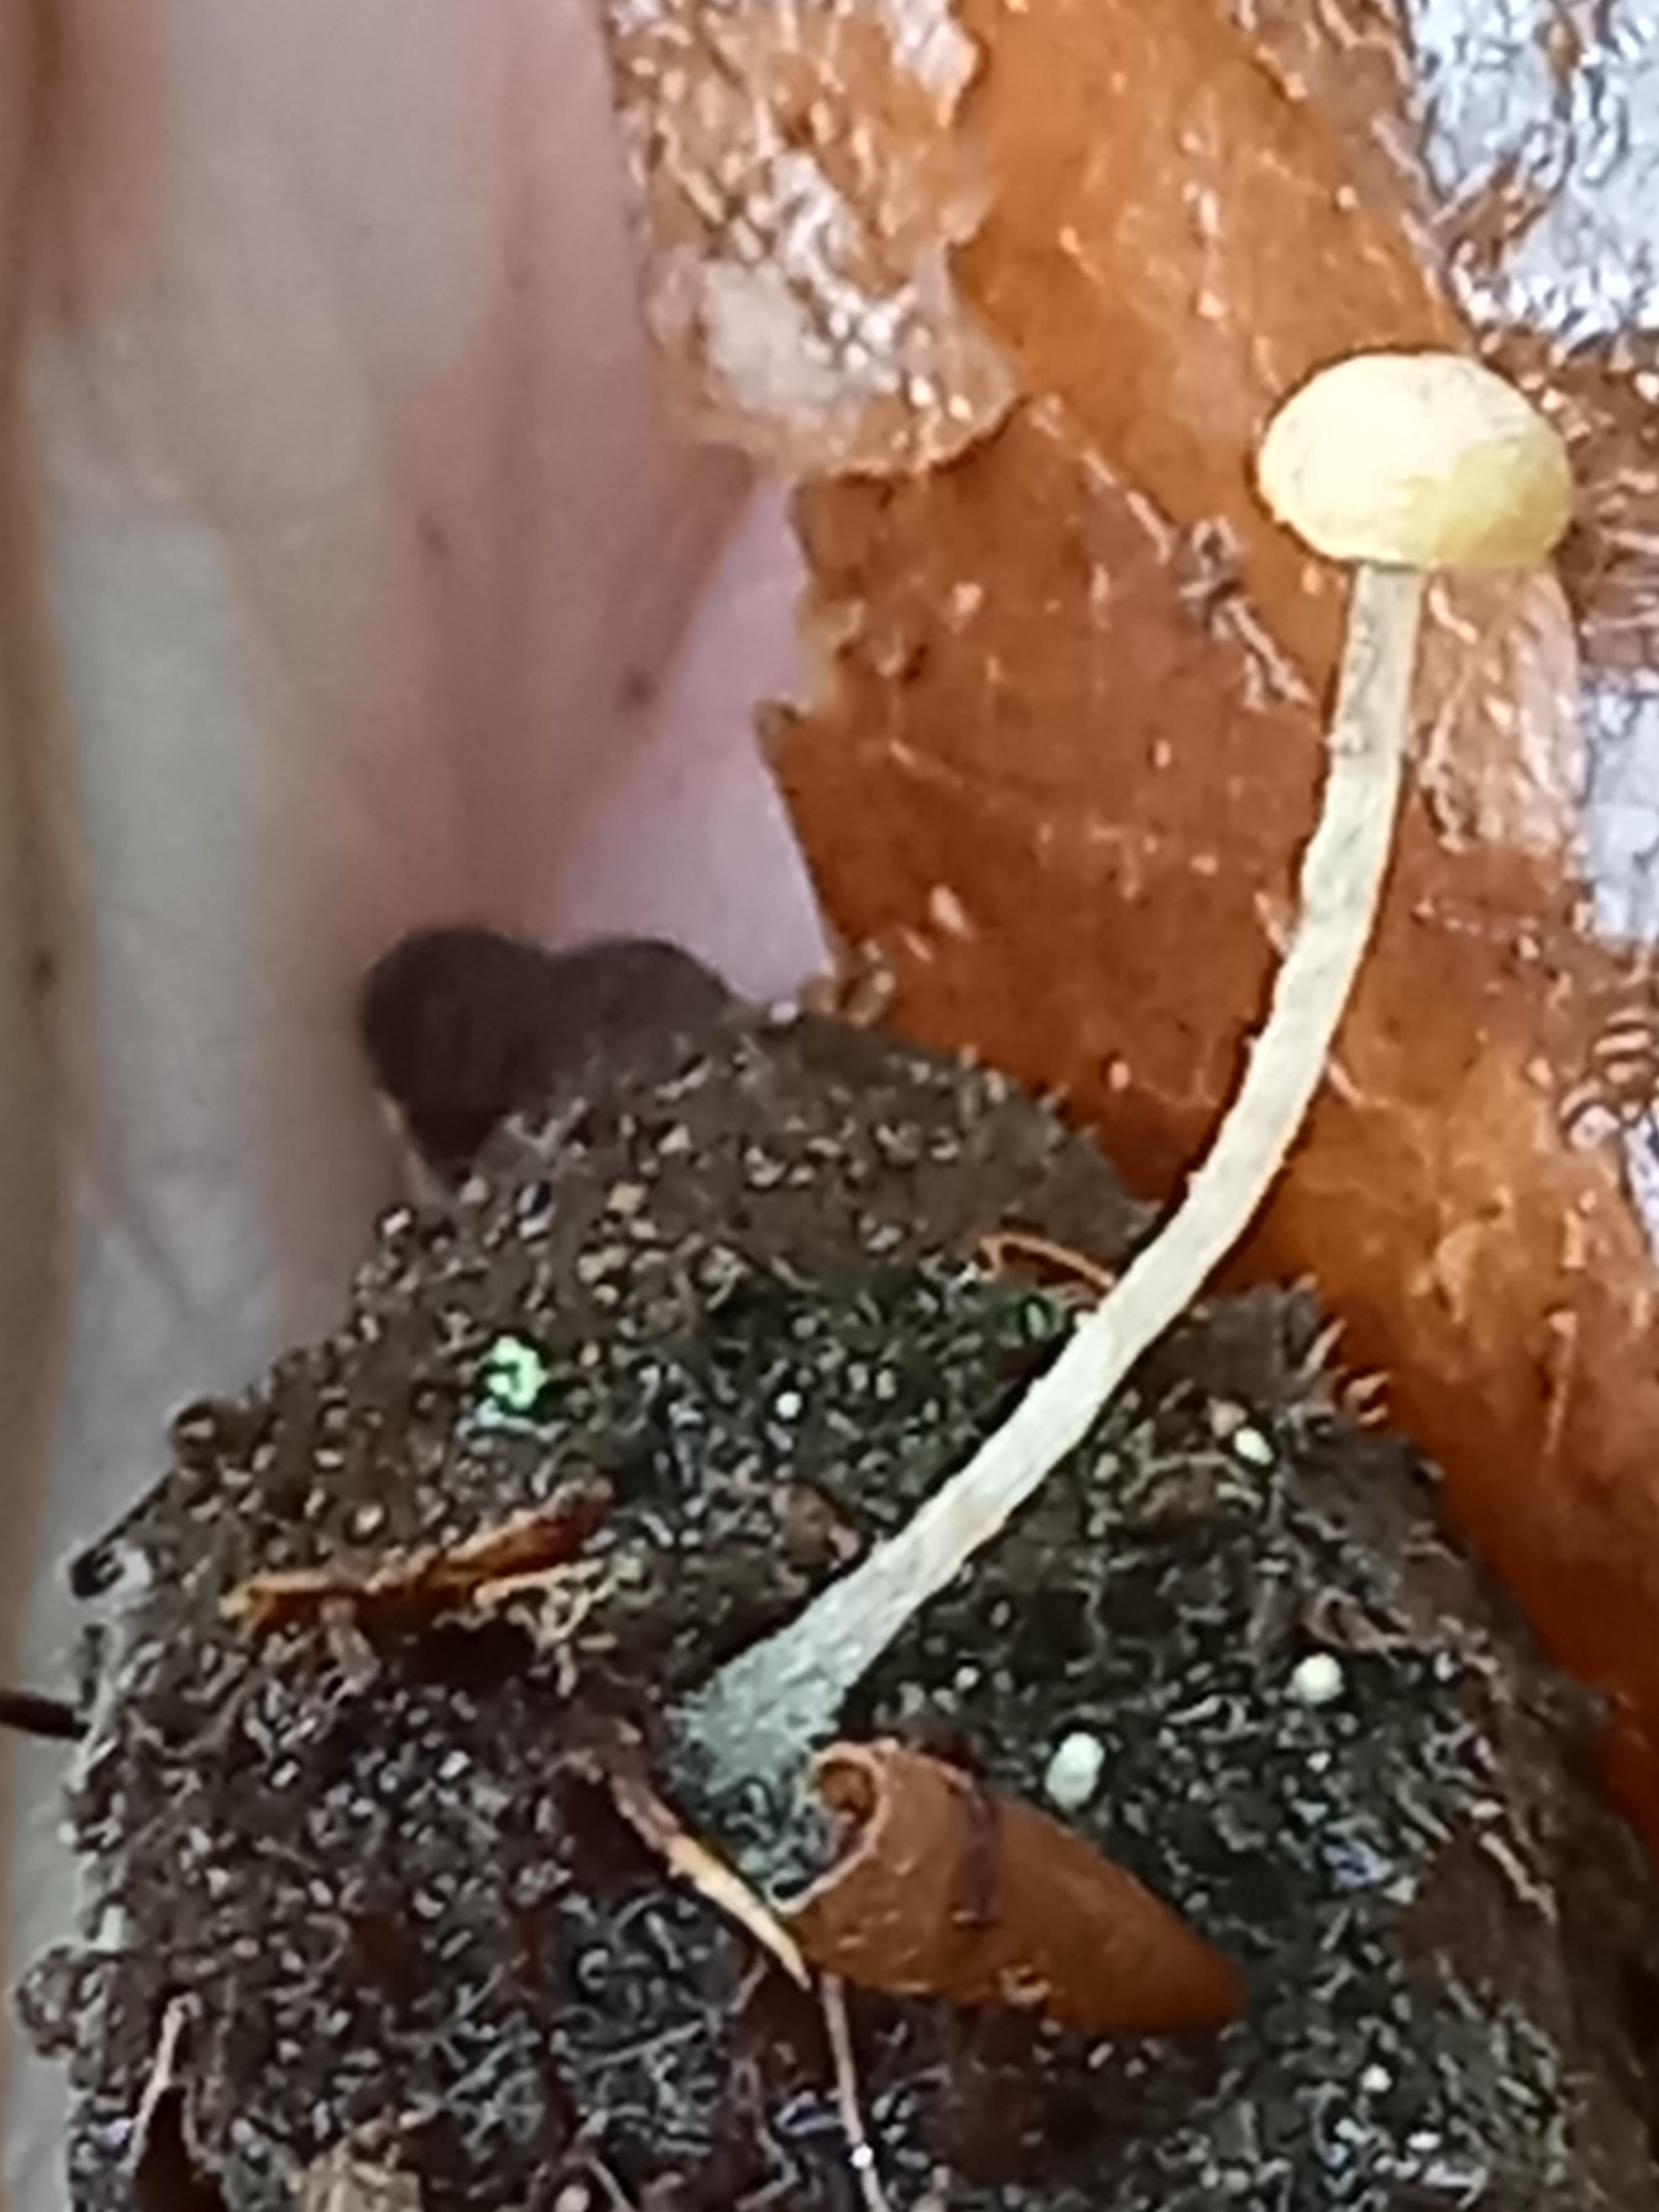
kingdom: Fungi
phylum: Basidiomycota
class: Agaricomycetes
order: Agaricales
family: Tubariaceae
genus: Flammulaster
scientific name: Flammulaster
